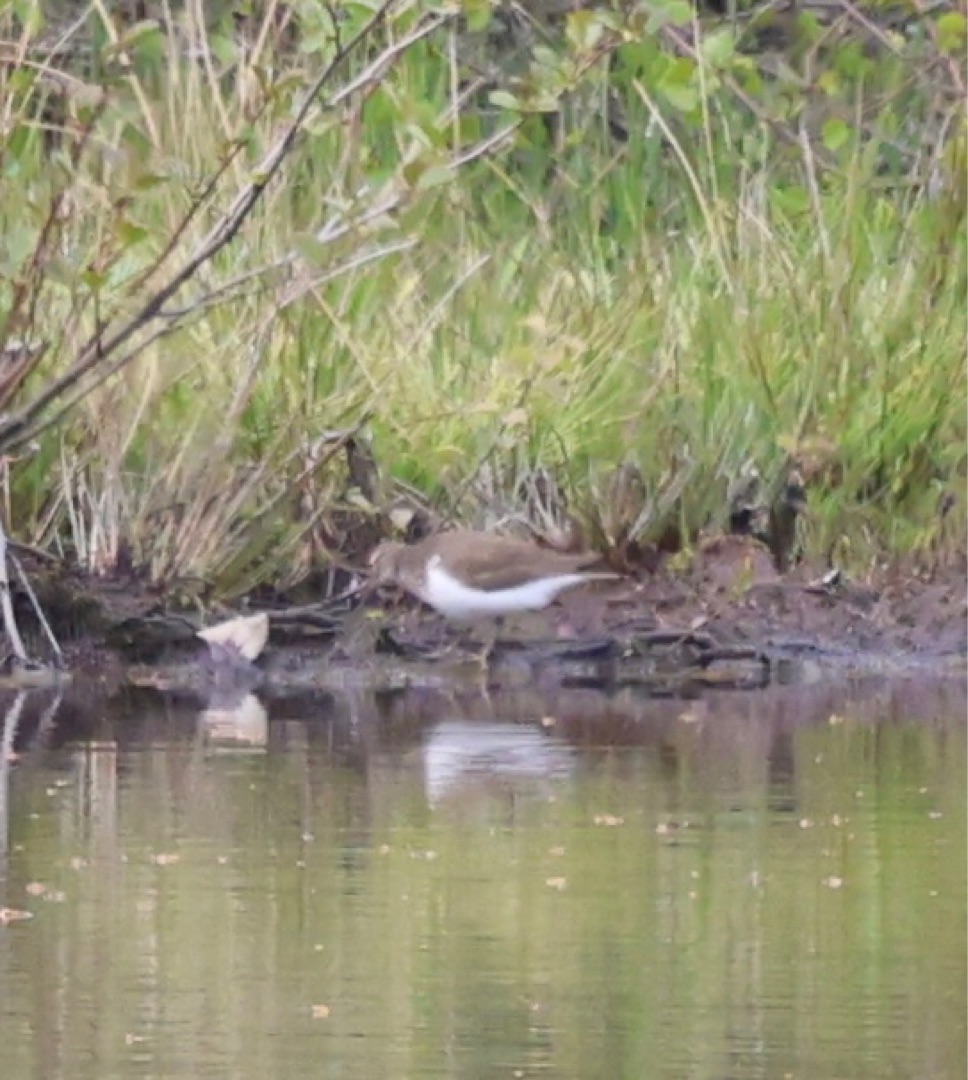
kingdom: Animalia
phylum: Chordata
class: Aves
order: Charadriiformes
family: Scolopacidae
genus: Actitis
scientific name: Actitis hypoleucos
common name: Mudderklire
